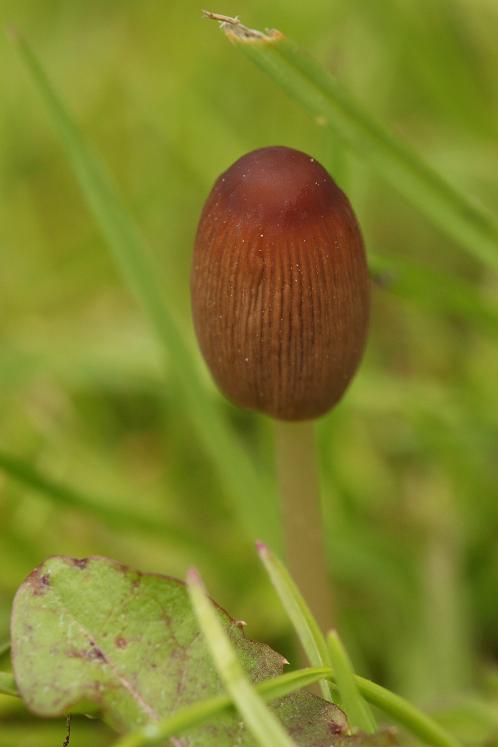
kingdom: Fungi
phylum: Basidiomycota
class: Agaricomycetes
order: Agaricales
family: Psathyrellaceae
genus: Parasola
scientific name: Parasola kuehneri
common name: skygge-hjulhat
